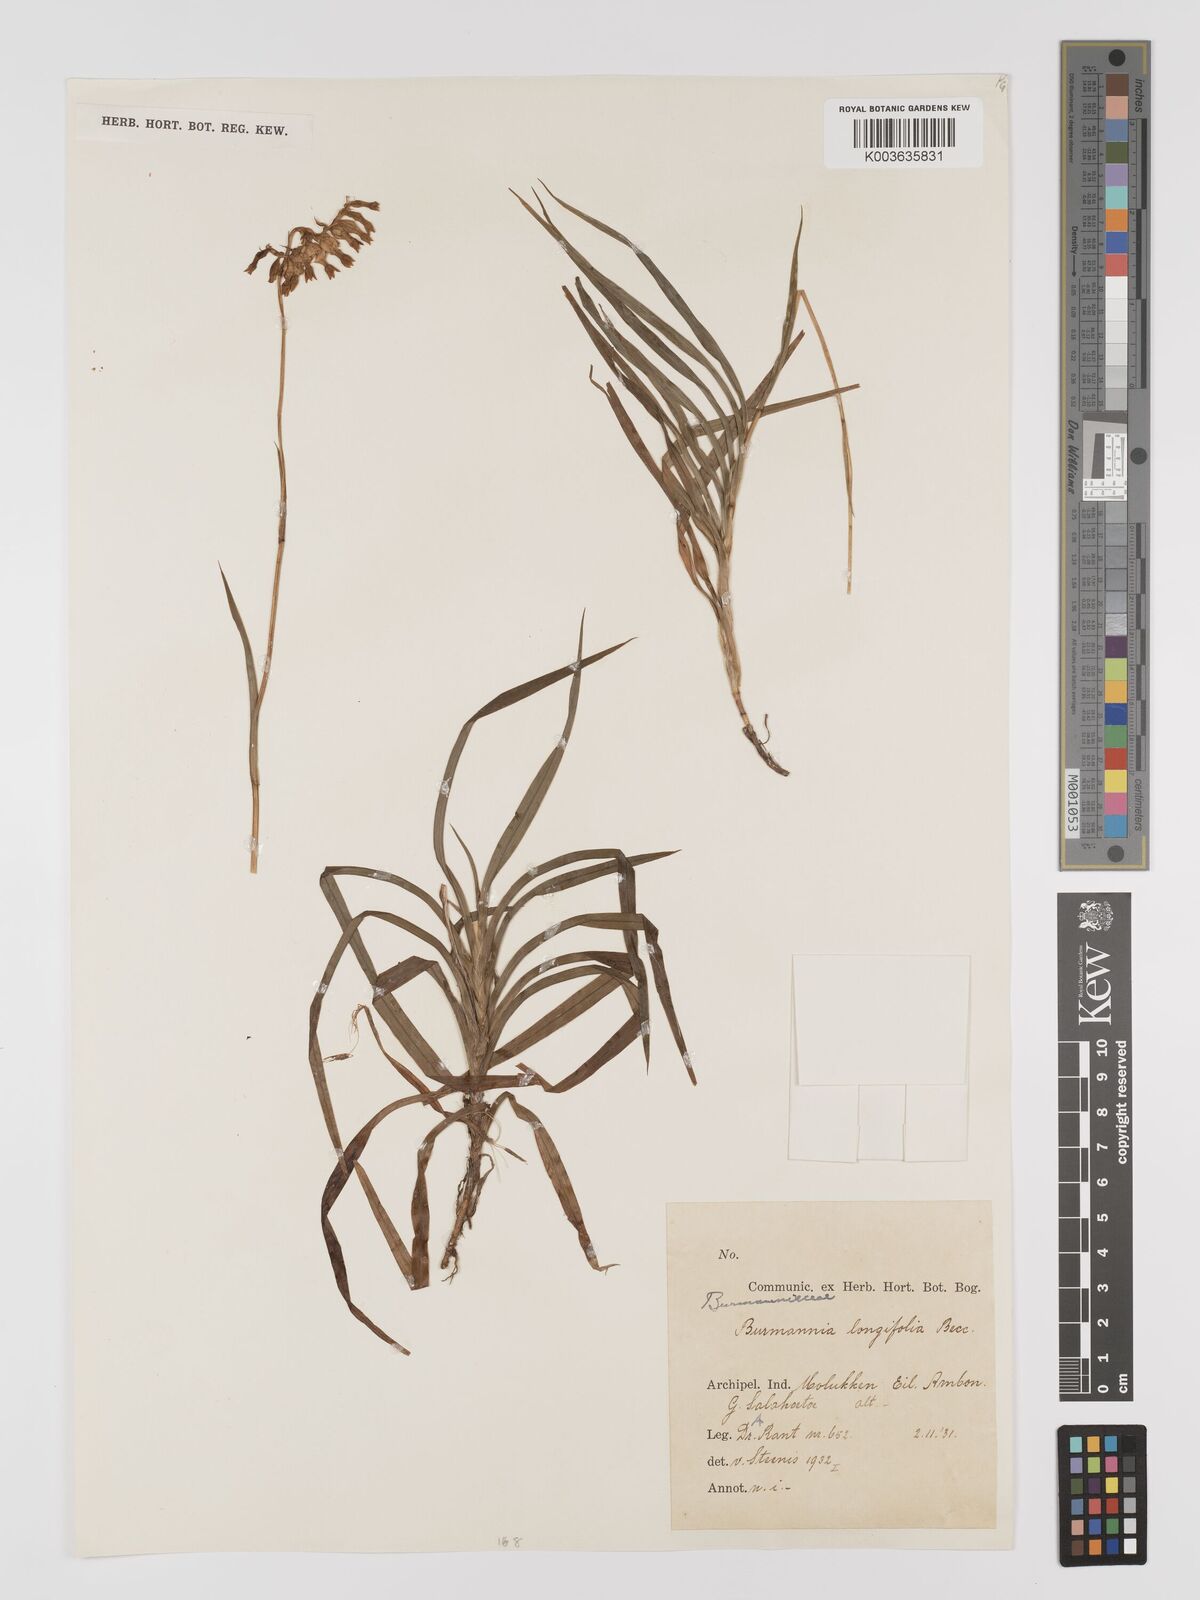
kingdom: Plantae
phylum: Tracheophyta
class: Liliopsida
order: Dioscoreales
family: Burmanniaceae
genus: Burmannia
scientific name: Burmannia longifolia
